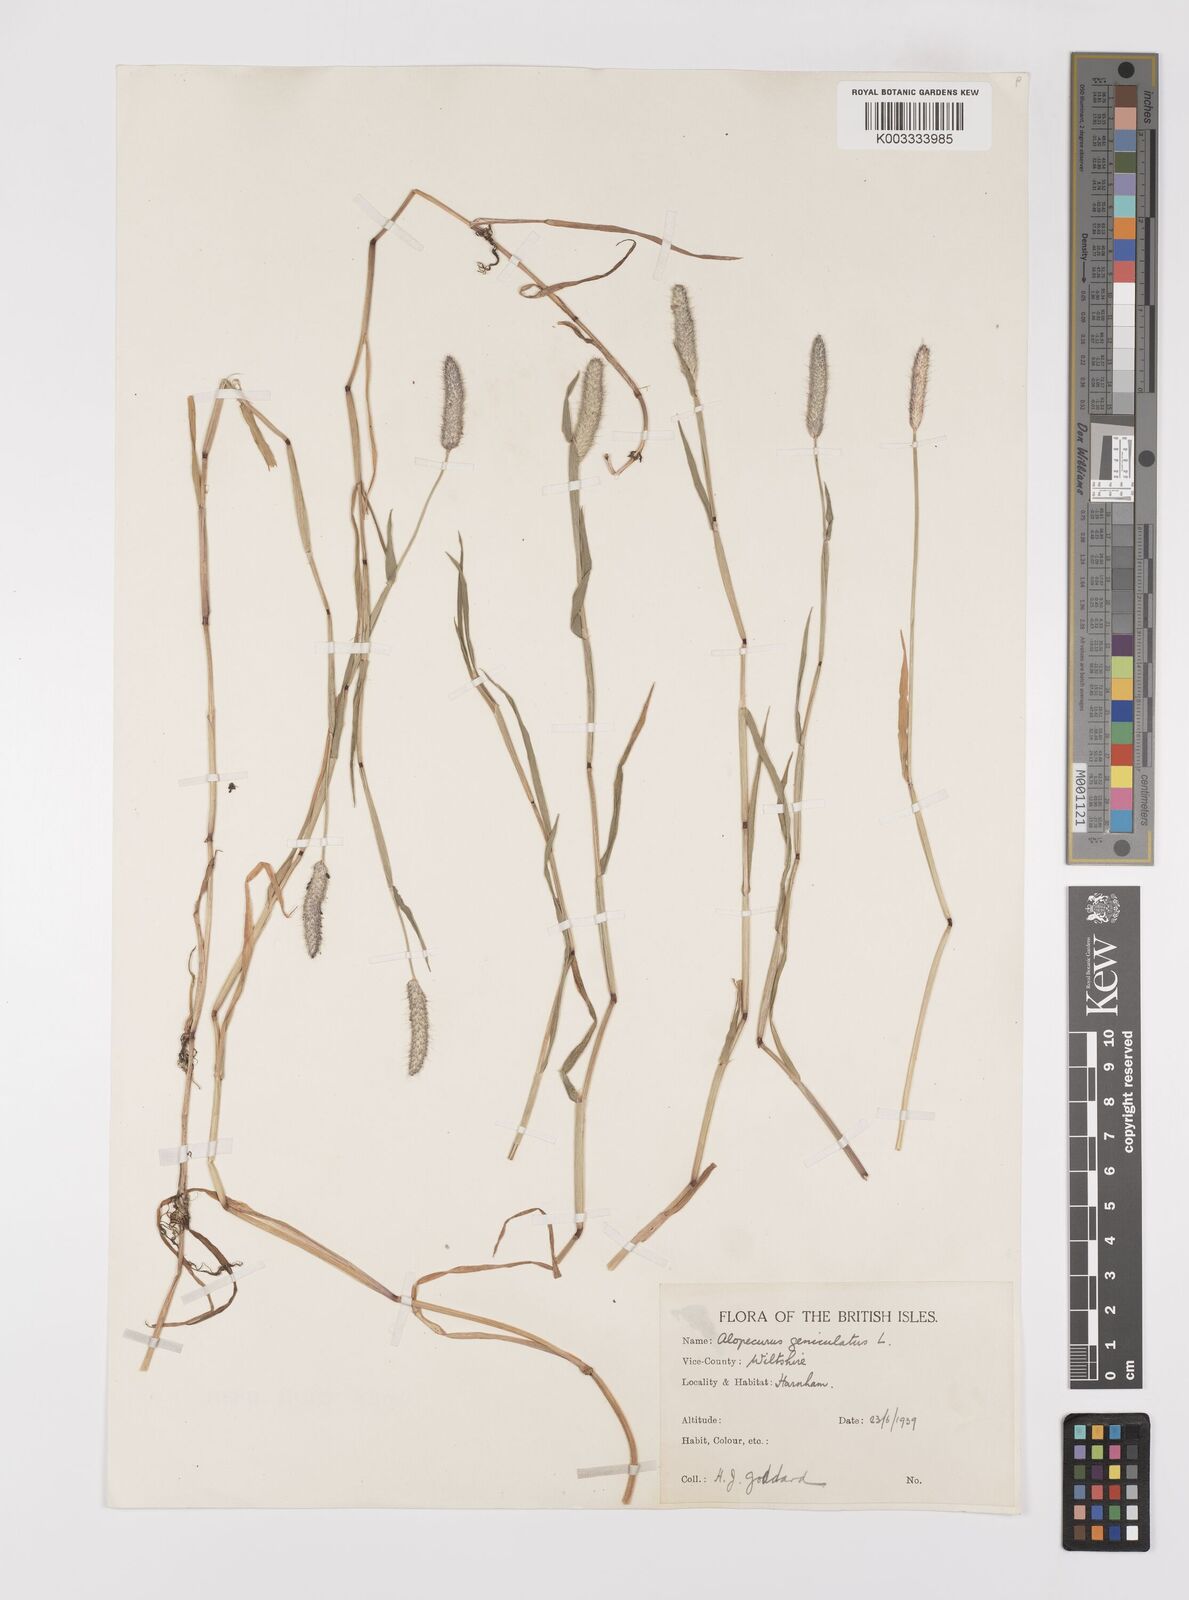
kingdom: Plantae
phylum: Tracheophyta
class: Liliopsida
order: Poales
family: Poaceae
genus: Alopecurus
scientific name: Alopecurus geniculatus
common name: Water foxtail
